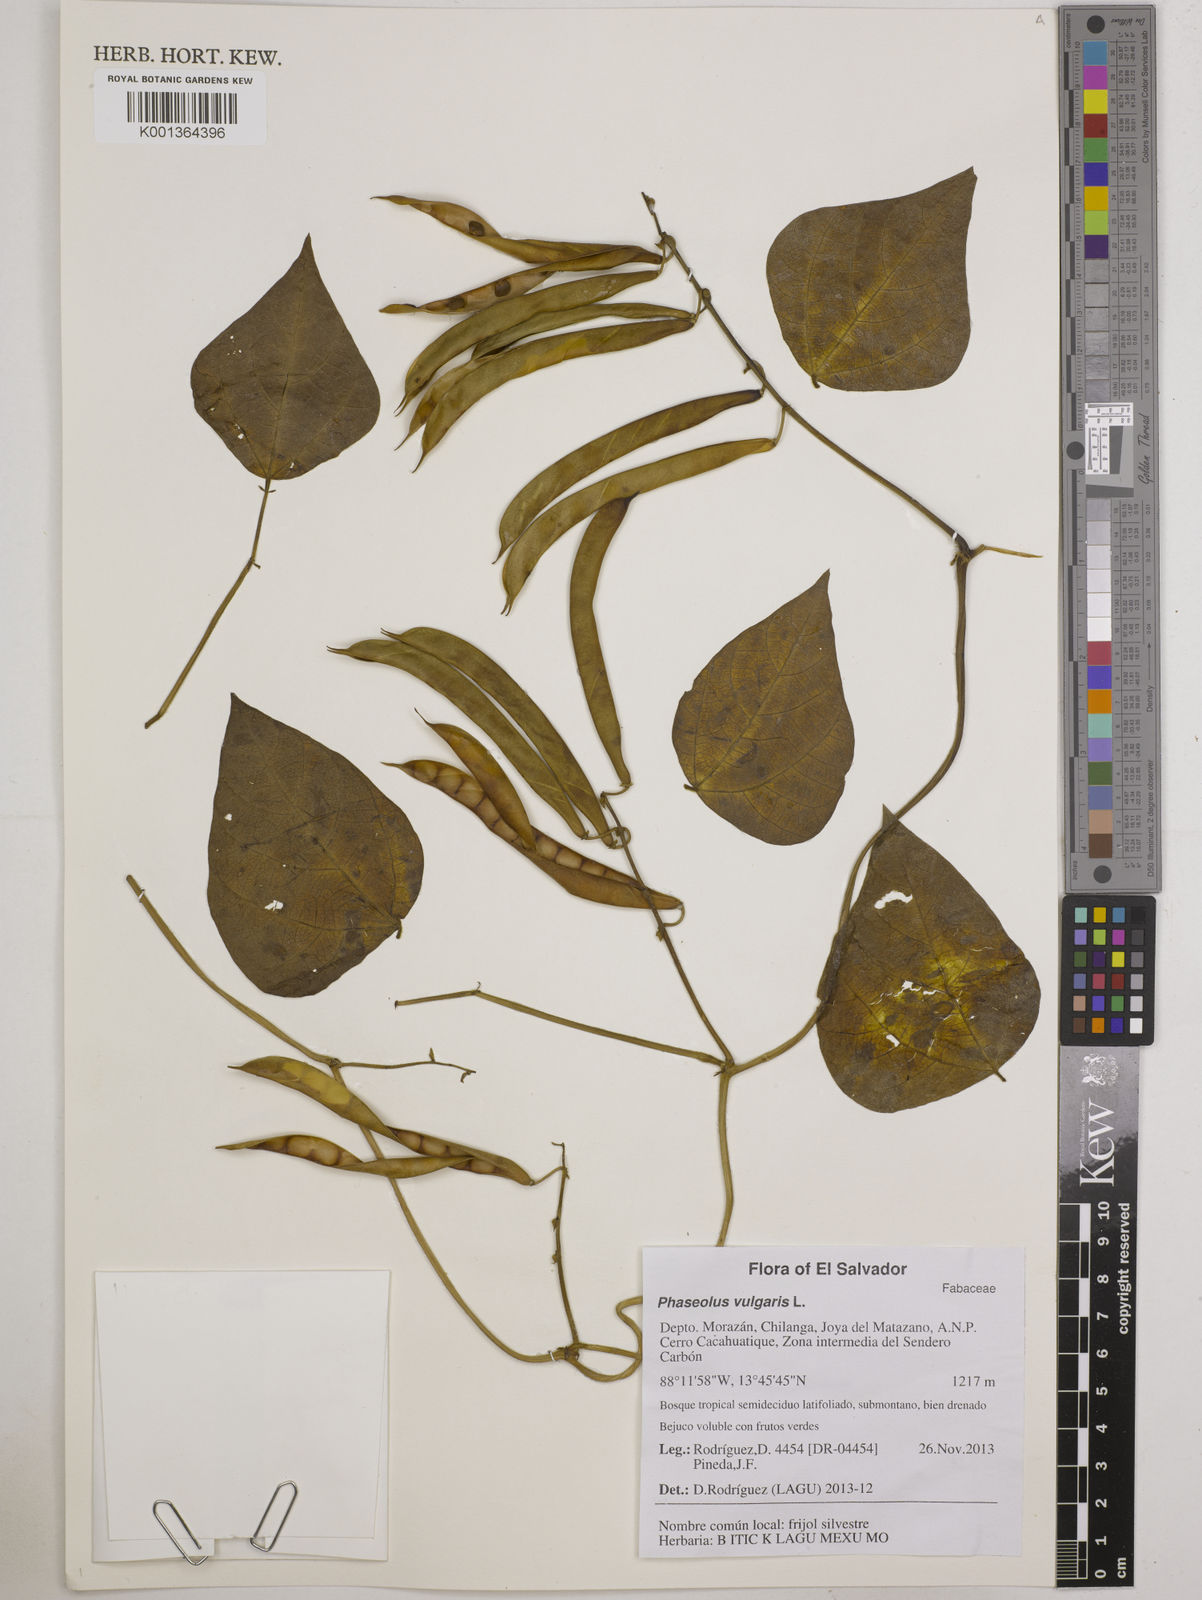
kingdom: Plantae
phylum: Tracheophyta
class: Magnoliopsida
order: Fabales
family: Fabaceae
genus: Phaseolus
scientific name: Phaseolus vulgaris
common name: Bean
